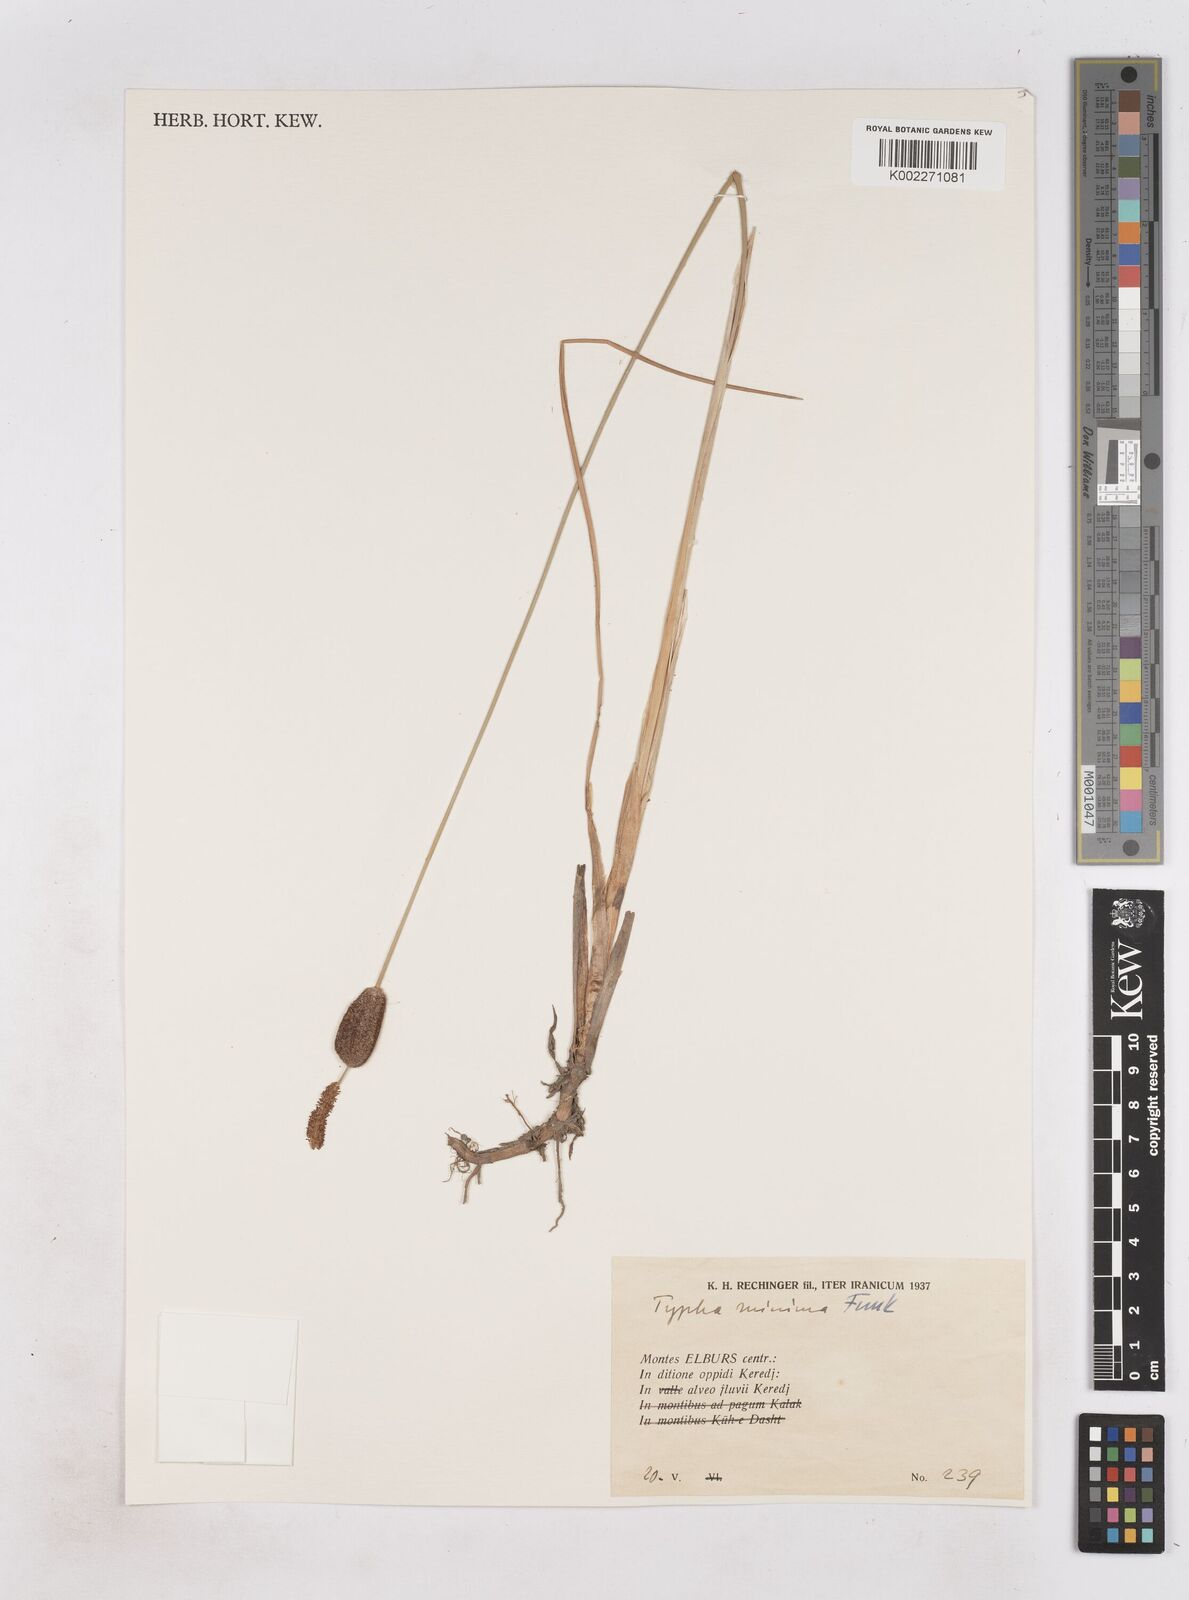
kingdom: Plantae
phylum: Tracheophyta
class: Liliopsida
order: Poales
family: Typhaceae
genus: Typha
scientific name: Typha minima
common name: Dwarf bulrush
